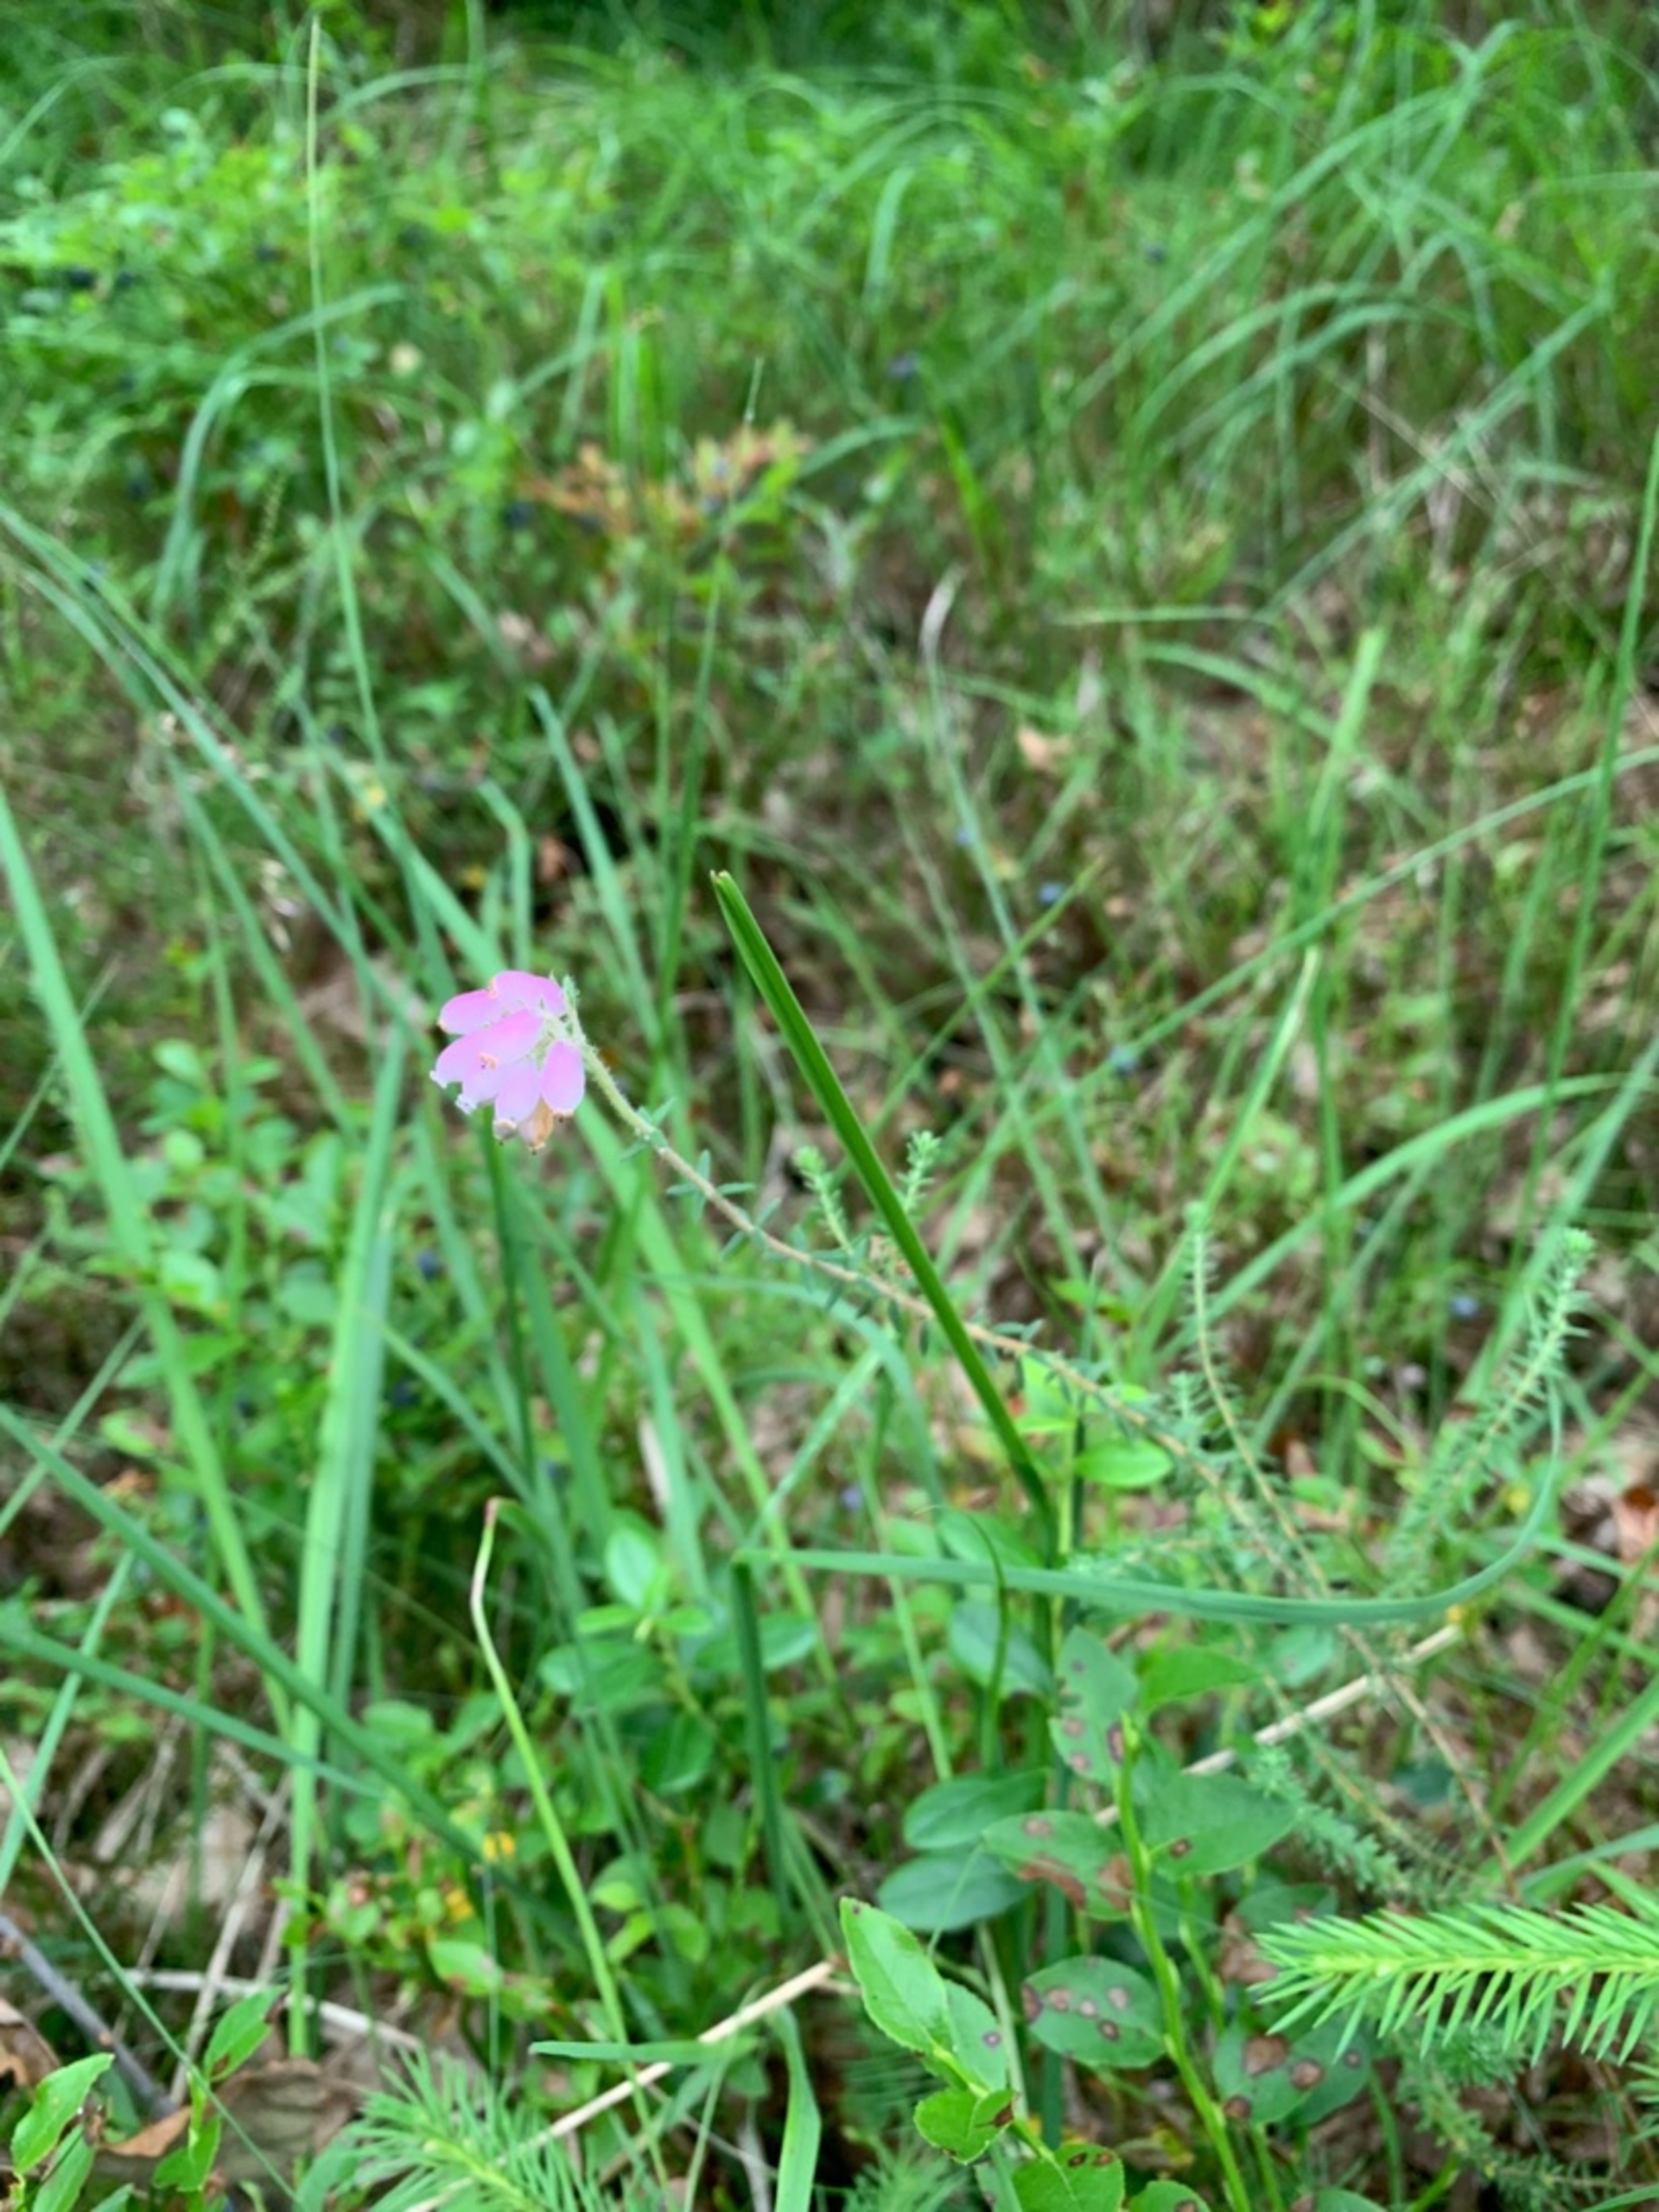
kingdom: Plantae
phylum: Tracheophyta
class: Magnoliopsida
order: Ericales
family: Ericaceae
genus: Erica
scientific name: Erica tetralix
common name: Klokkelyng
